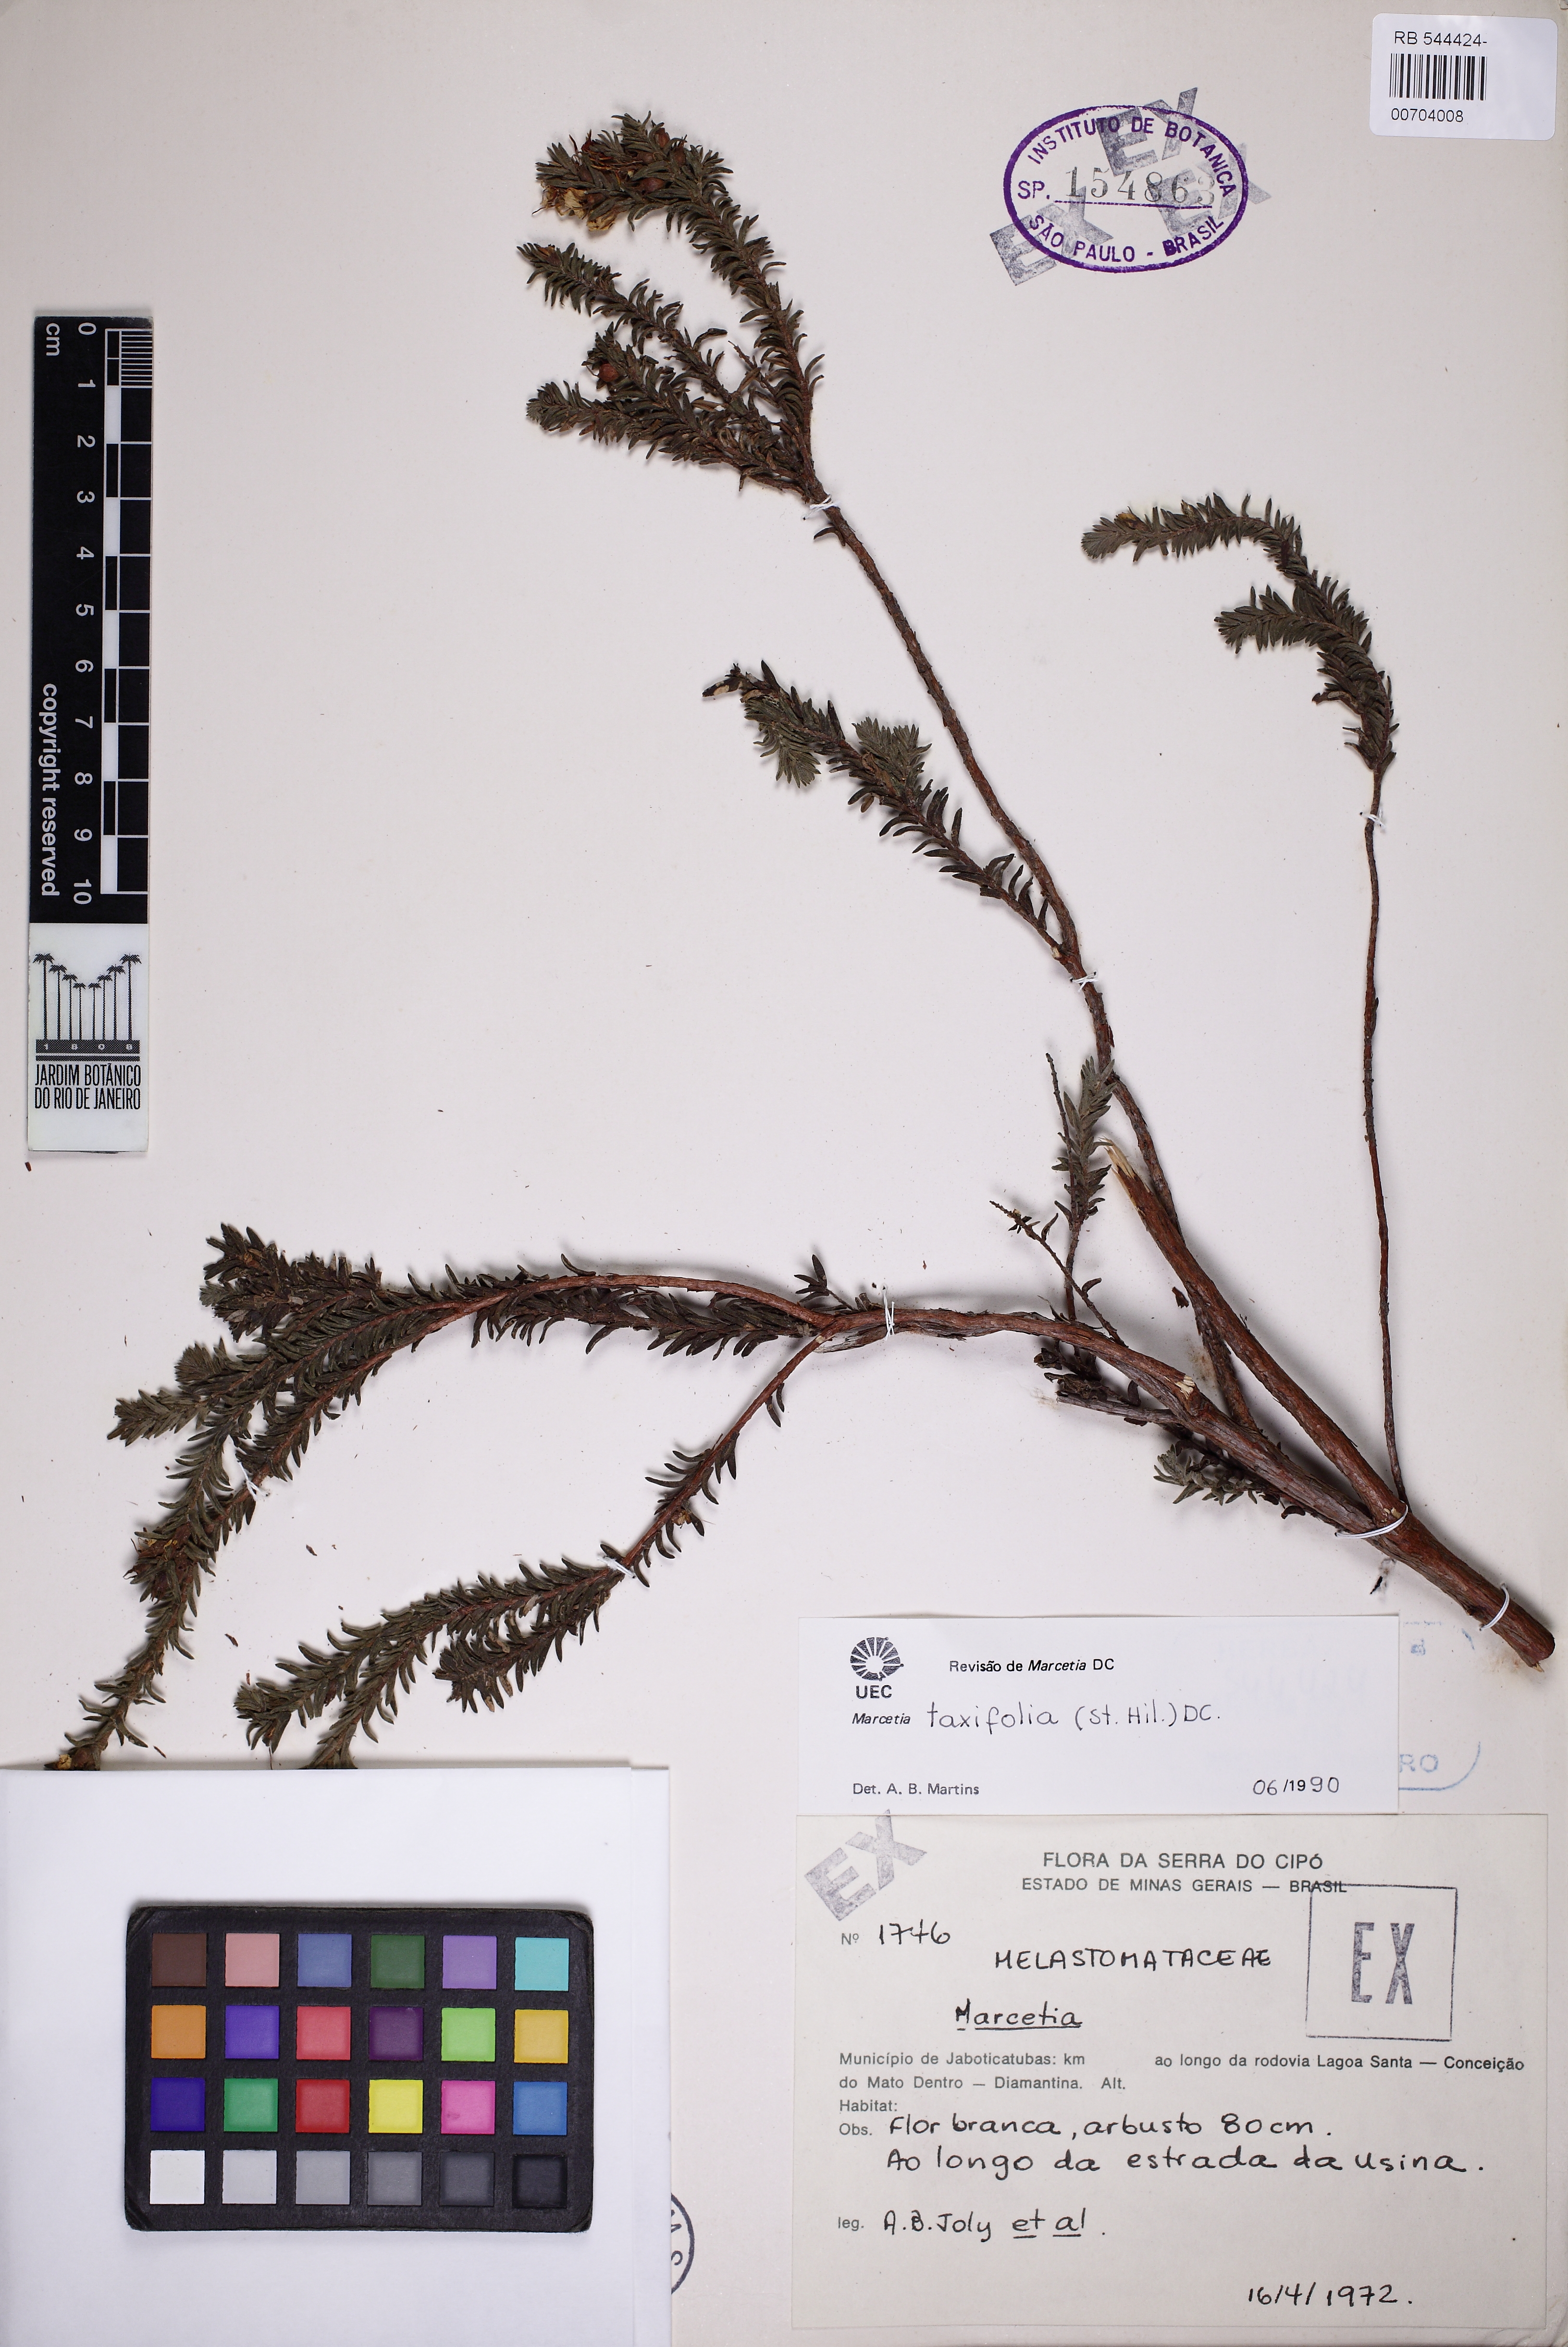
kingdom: Plantae
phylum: Tracheophyta
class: Magnoliopsida
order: Myrtales
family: Melastomataceae
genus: Marcetia
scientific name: Marcetia taxifolia
